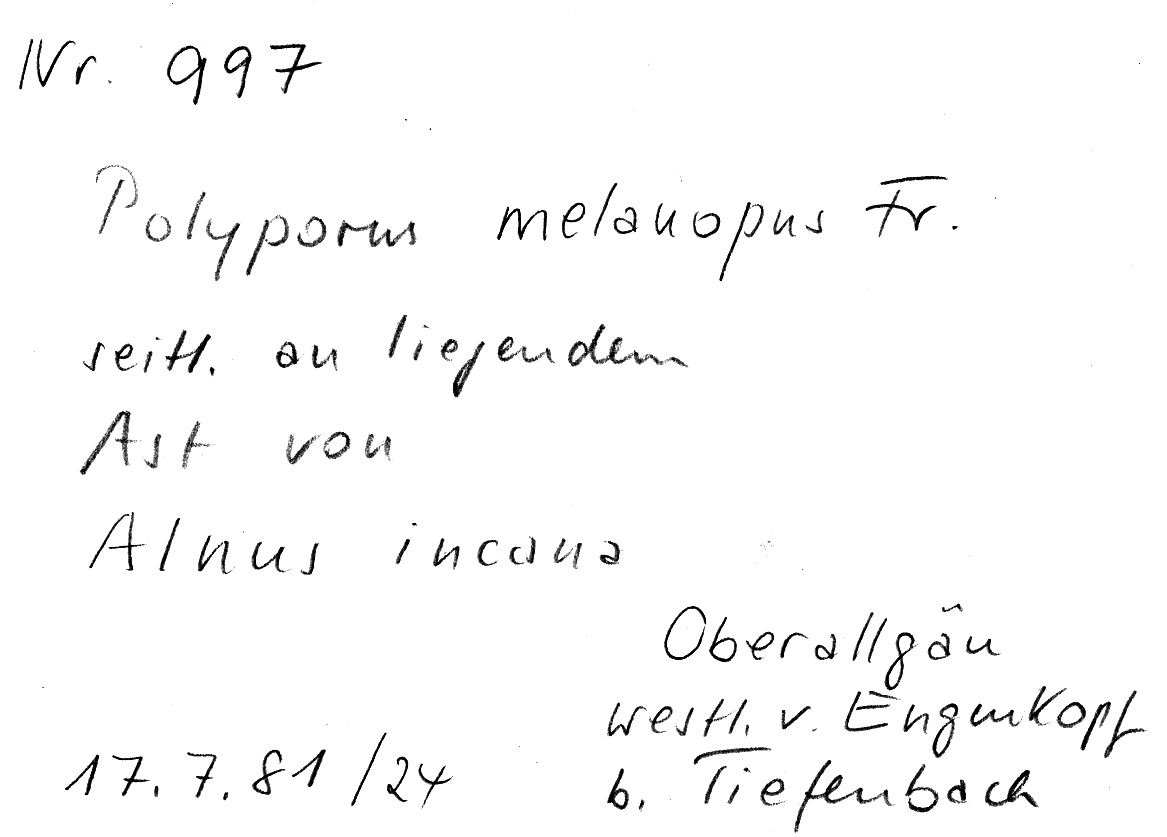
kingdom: Fungi
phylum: Basidiomycota
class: Agaricomycetes
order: Polyporales
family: Polyporaceae
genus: Picipes
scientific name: Picipes melanopus
